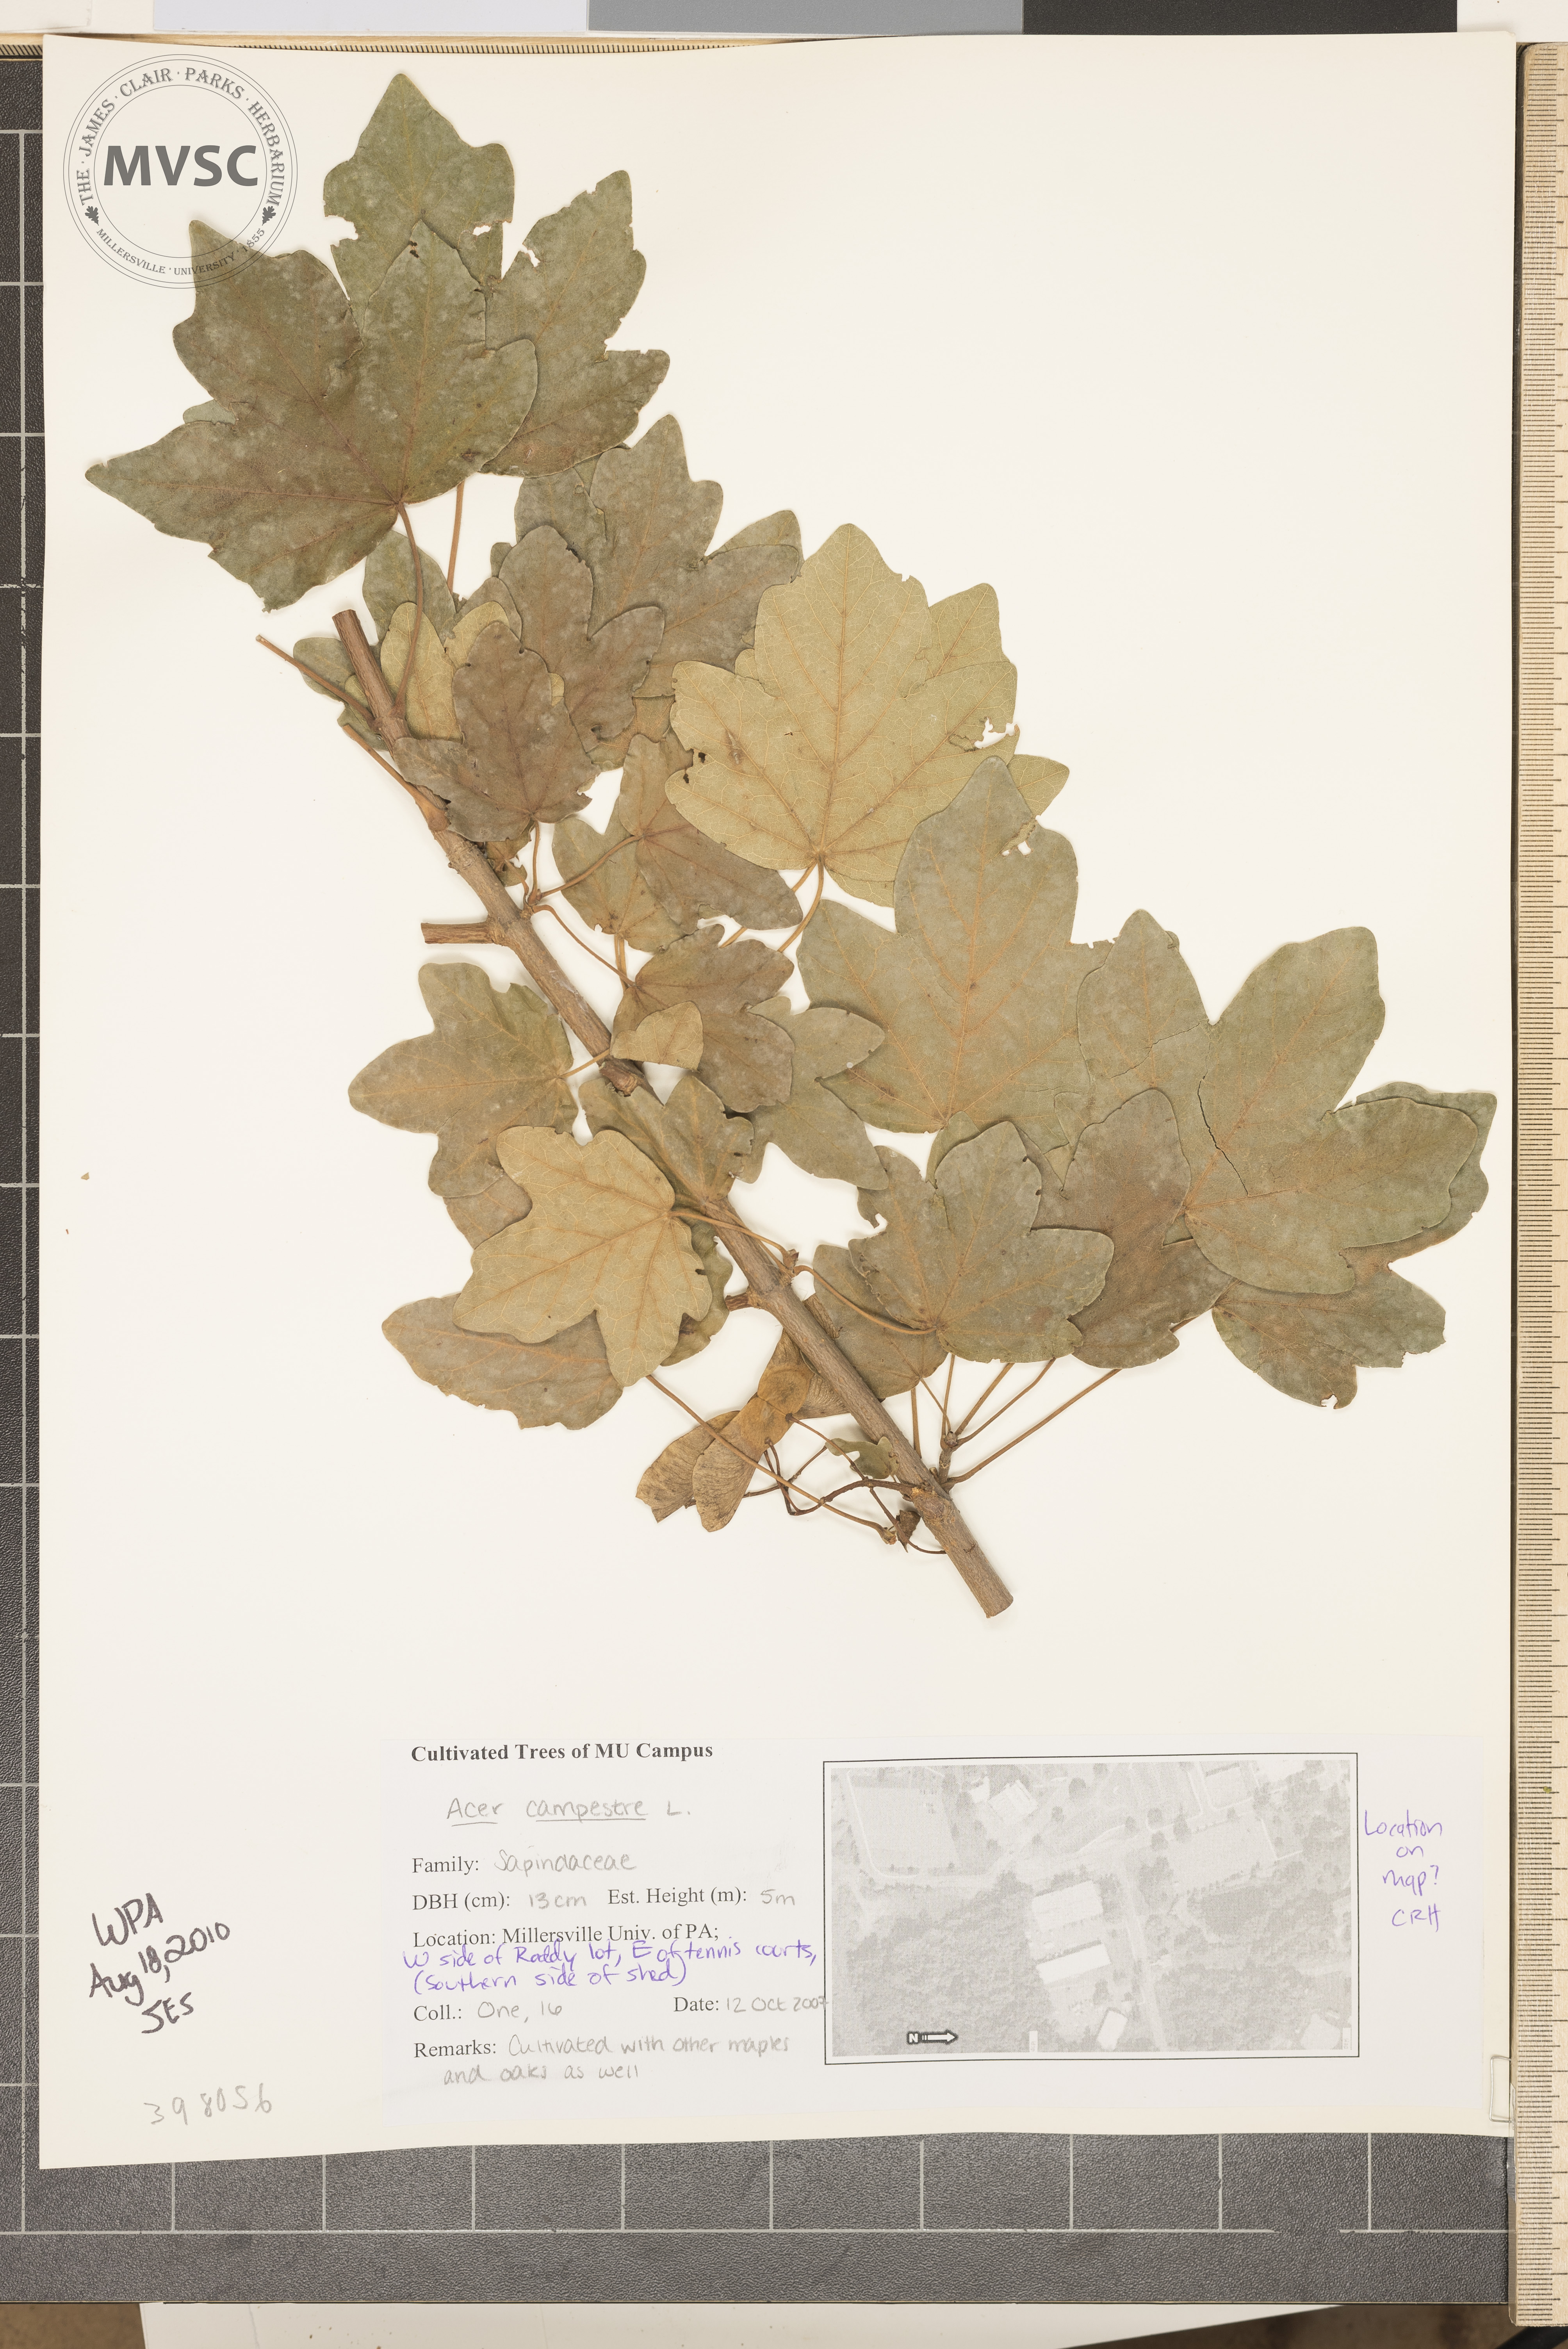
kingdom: Plantae
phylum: Tracheophyta
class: Magnoliopsida
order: Sapindales
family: Sapindaceae
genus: Acer
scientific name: Acer campestre
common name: Hedge maple
